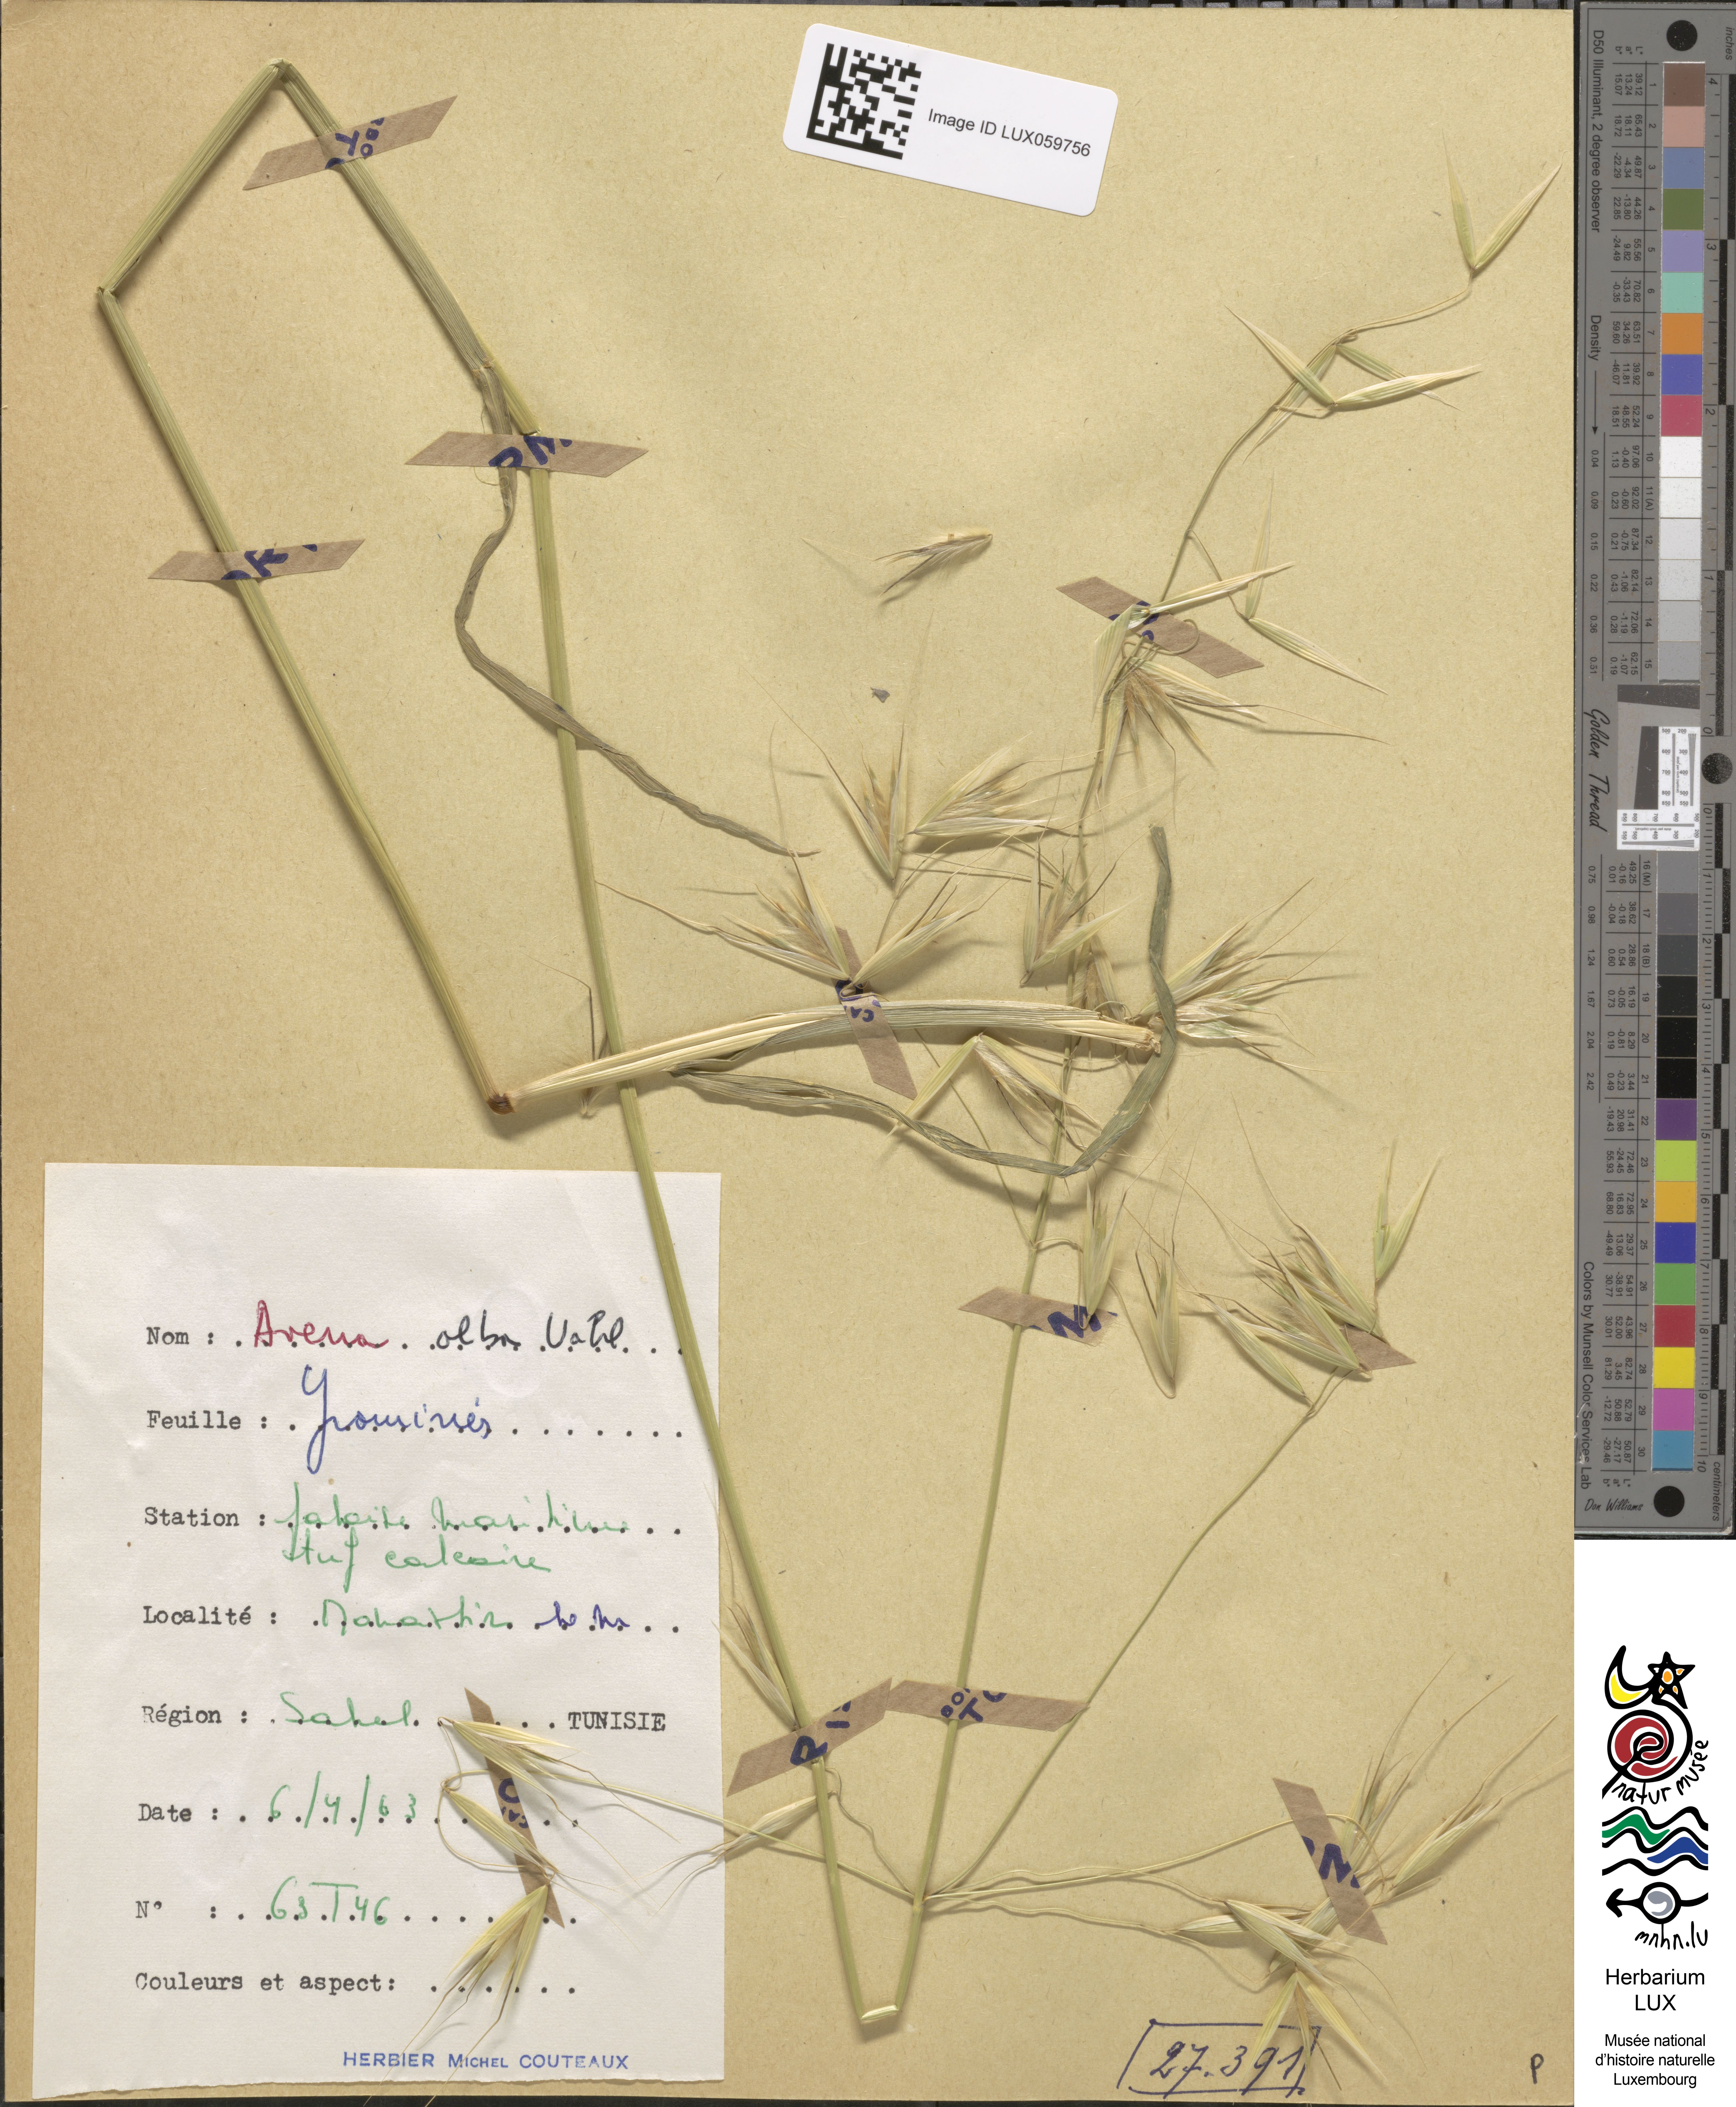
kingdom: Plantae
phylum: Tracheophyta
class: Liliopsida
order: Poales
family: Poaceae
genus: Arrhenatherum
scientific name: Arrhenatherum album
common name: Tall oat grass
